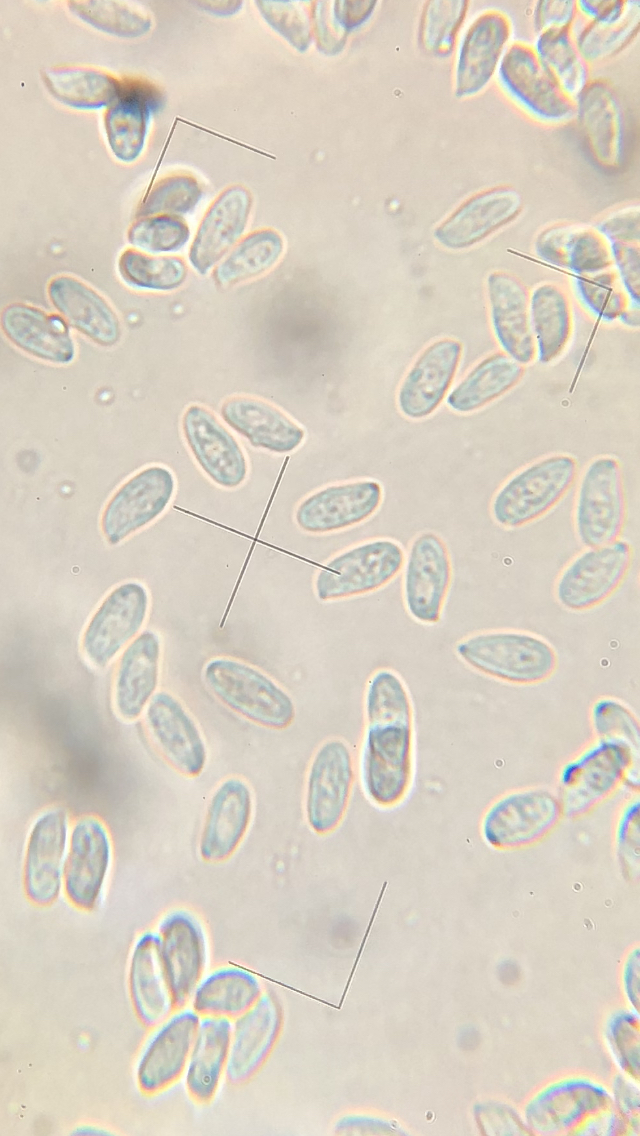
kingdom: Fungi
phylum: Basidiomycota
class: Agaricomycetes
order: Agaricales
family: Tricholomataceae
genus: Clitocybe
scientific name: Clitocybe amarescens
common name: gødnings-tragthat
